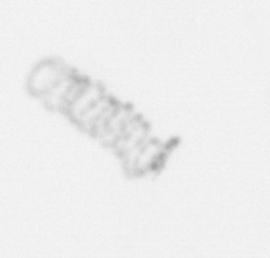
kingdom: Chromista
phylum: Ochrophyta
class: Bacillariophyceae
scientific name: Bacillariophyceae
